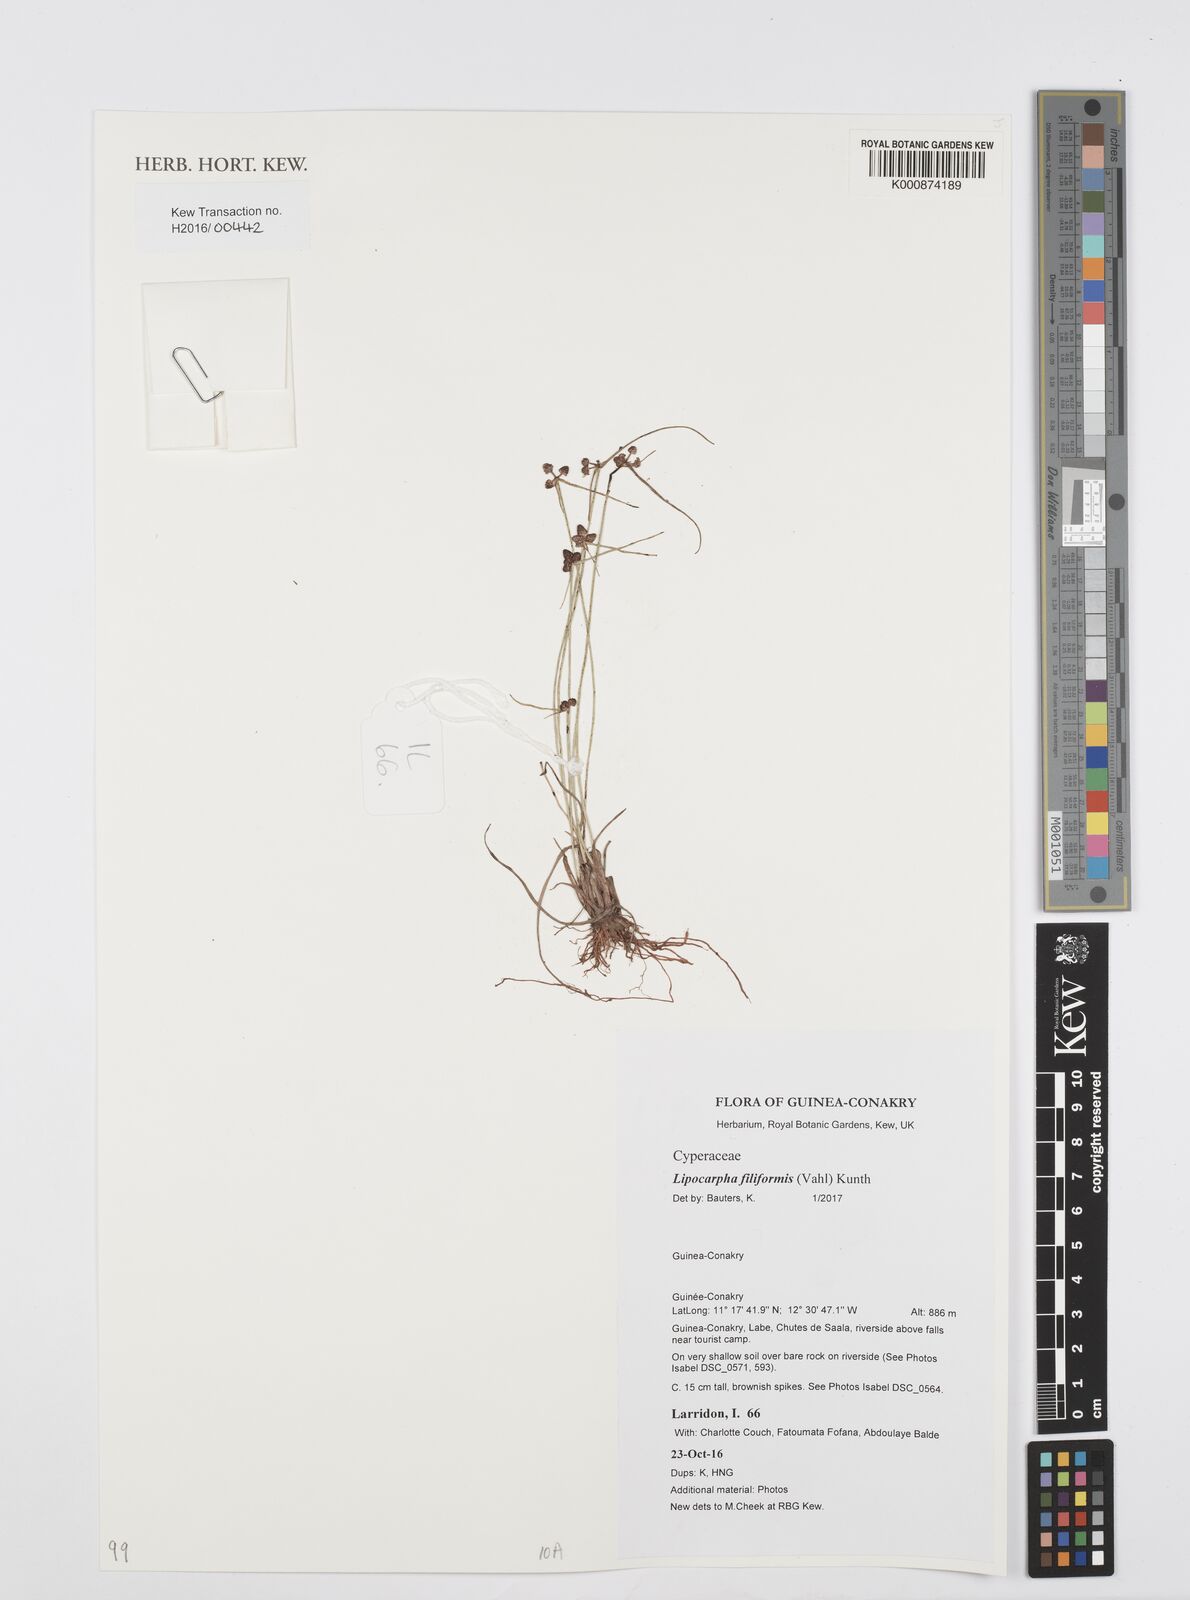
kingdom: Plantae
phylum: Tracheophyta
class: Liliopsida
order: Poales
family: Cyperaceae
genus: Cyperus
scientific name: Cyperus filiformis
